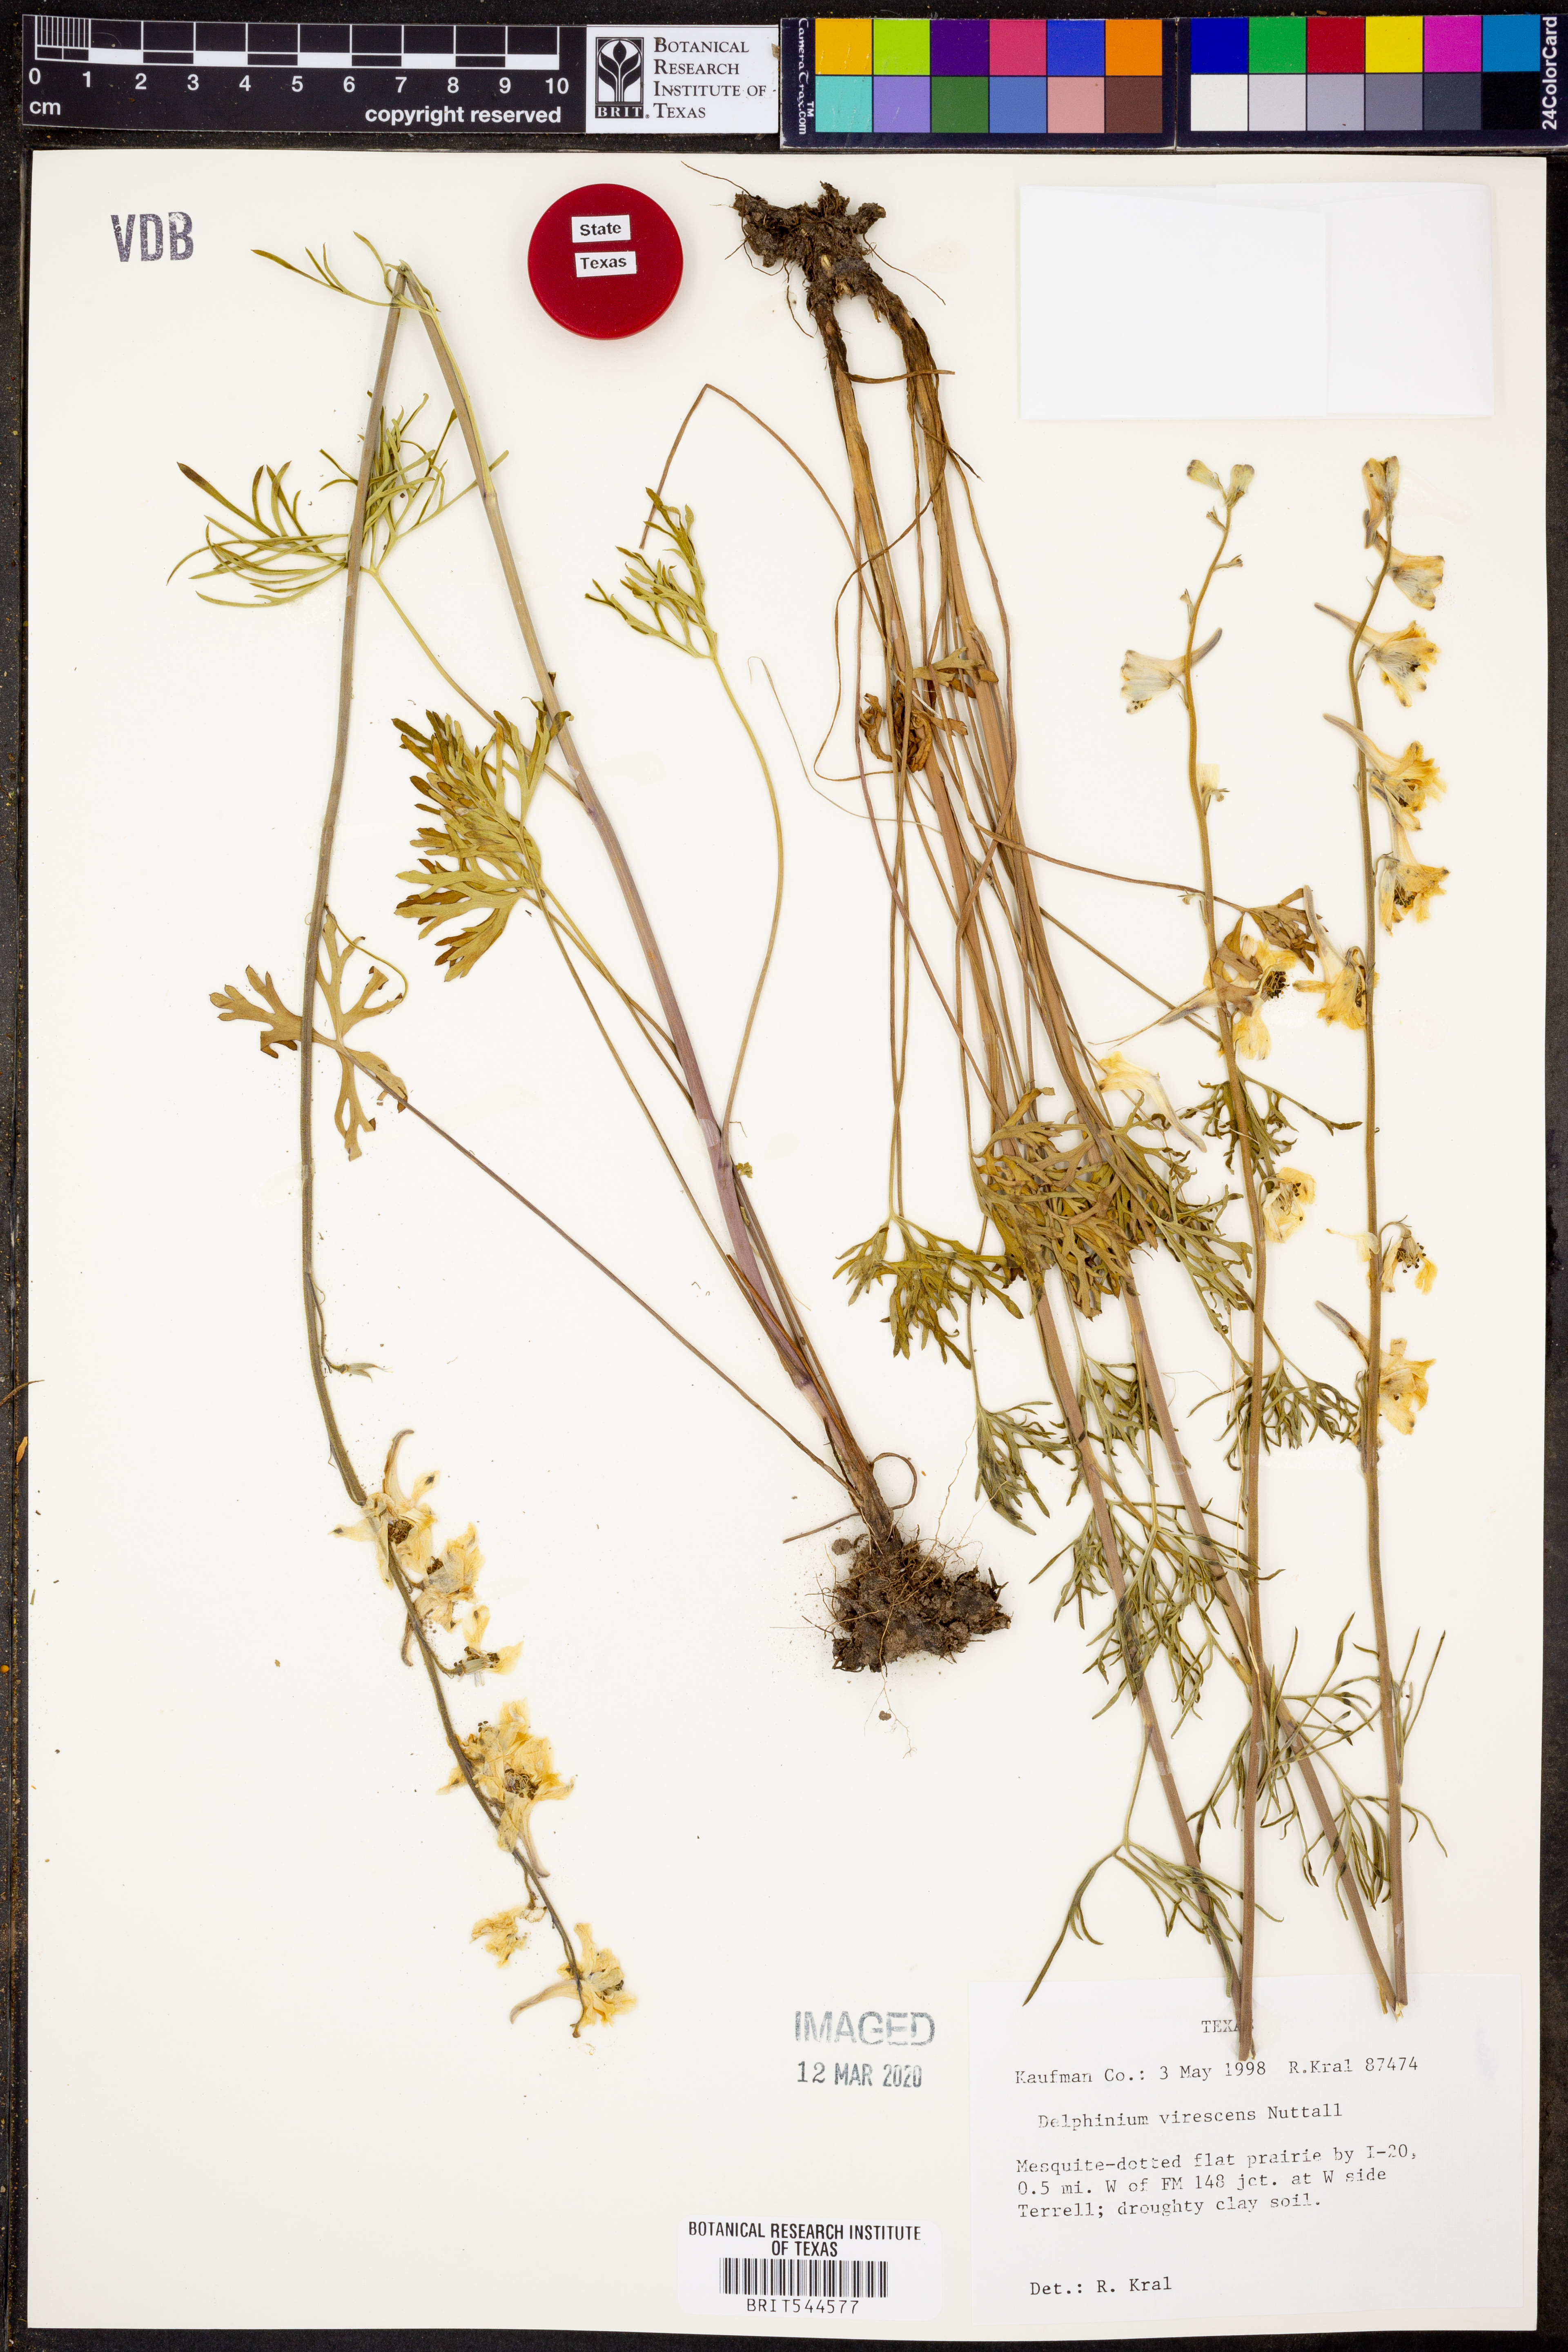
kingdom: Plantae
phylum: Tracheophyta
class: Magnoliopsida
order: Ranunculales
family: Ranunculaceae
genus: Delphinium
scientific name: Delphinium carolinianum
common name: Carolina larkspur
